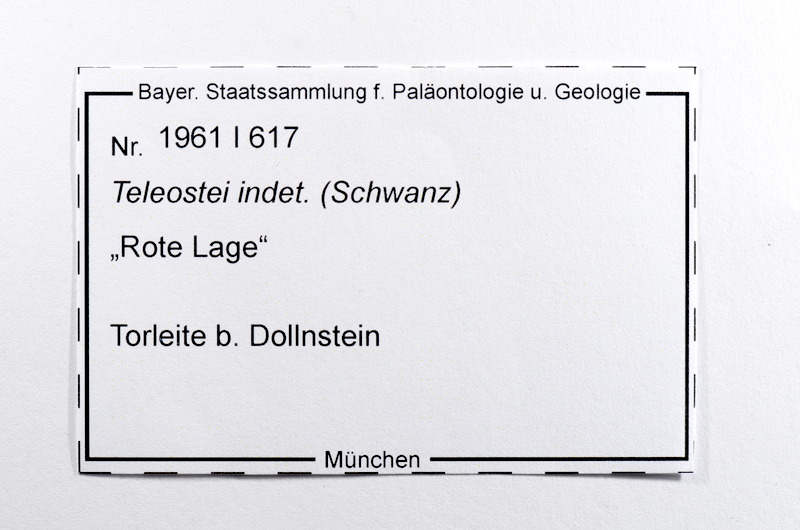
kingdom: Animalia
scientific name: Animalia
